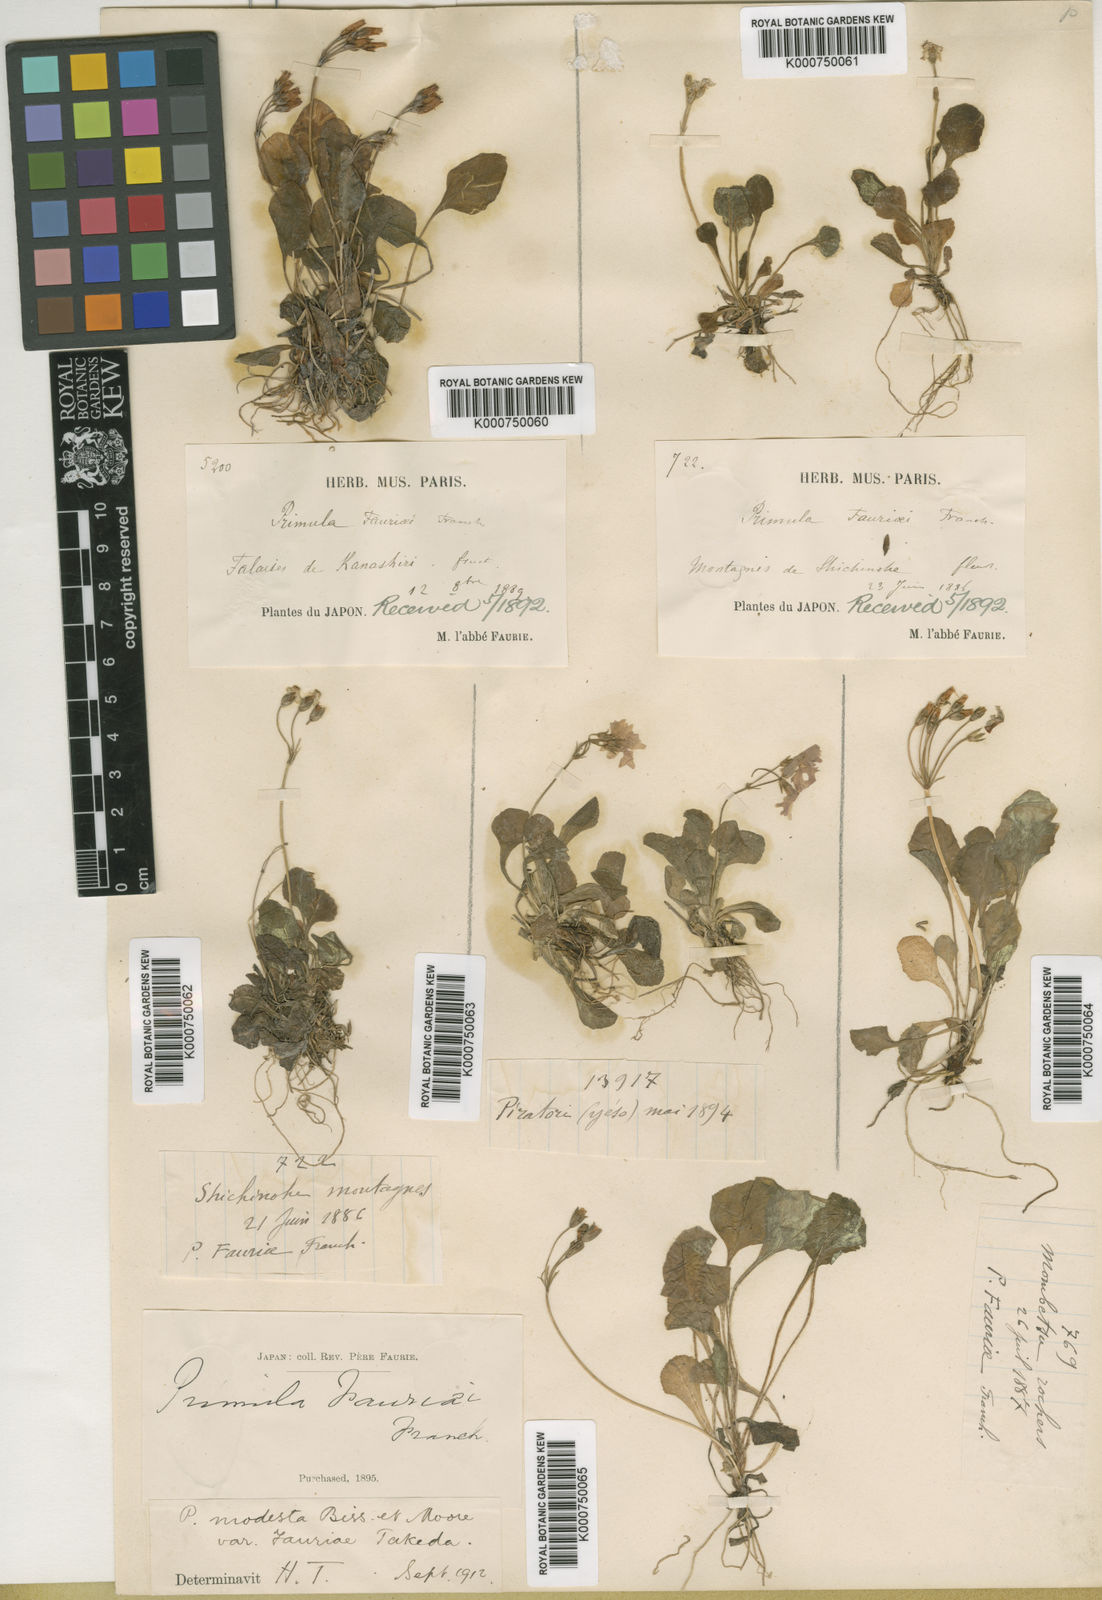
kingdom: Plantae
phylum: Tracheophyta
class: Magnoliopsida
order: Ericales
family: Primulaceae
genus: Primula
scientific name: Primula modesta
